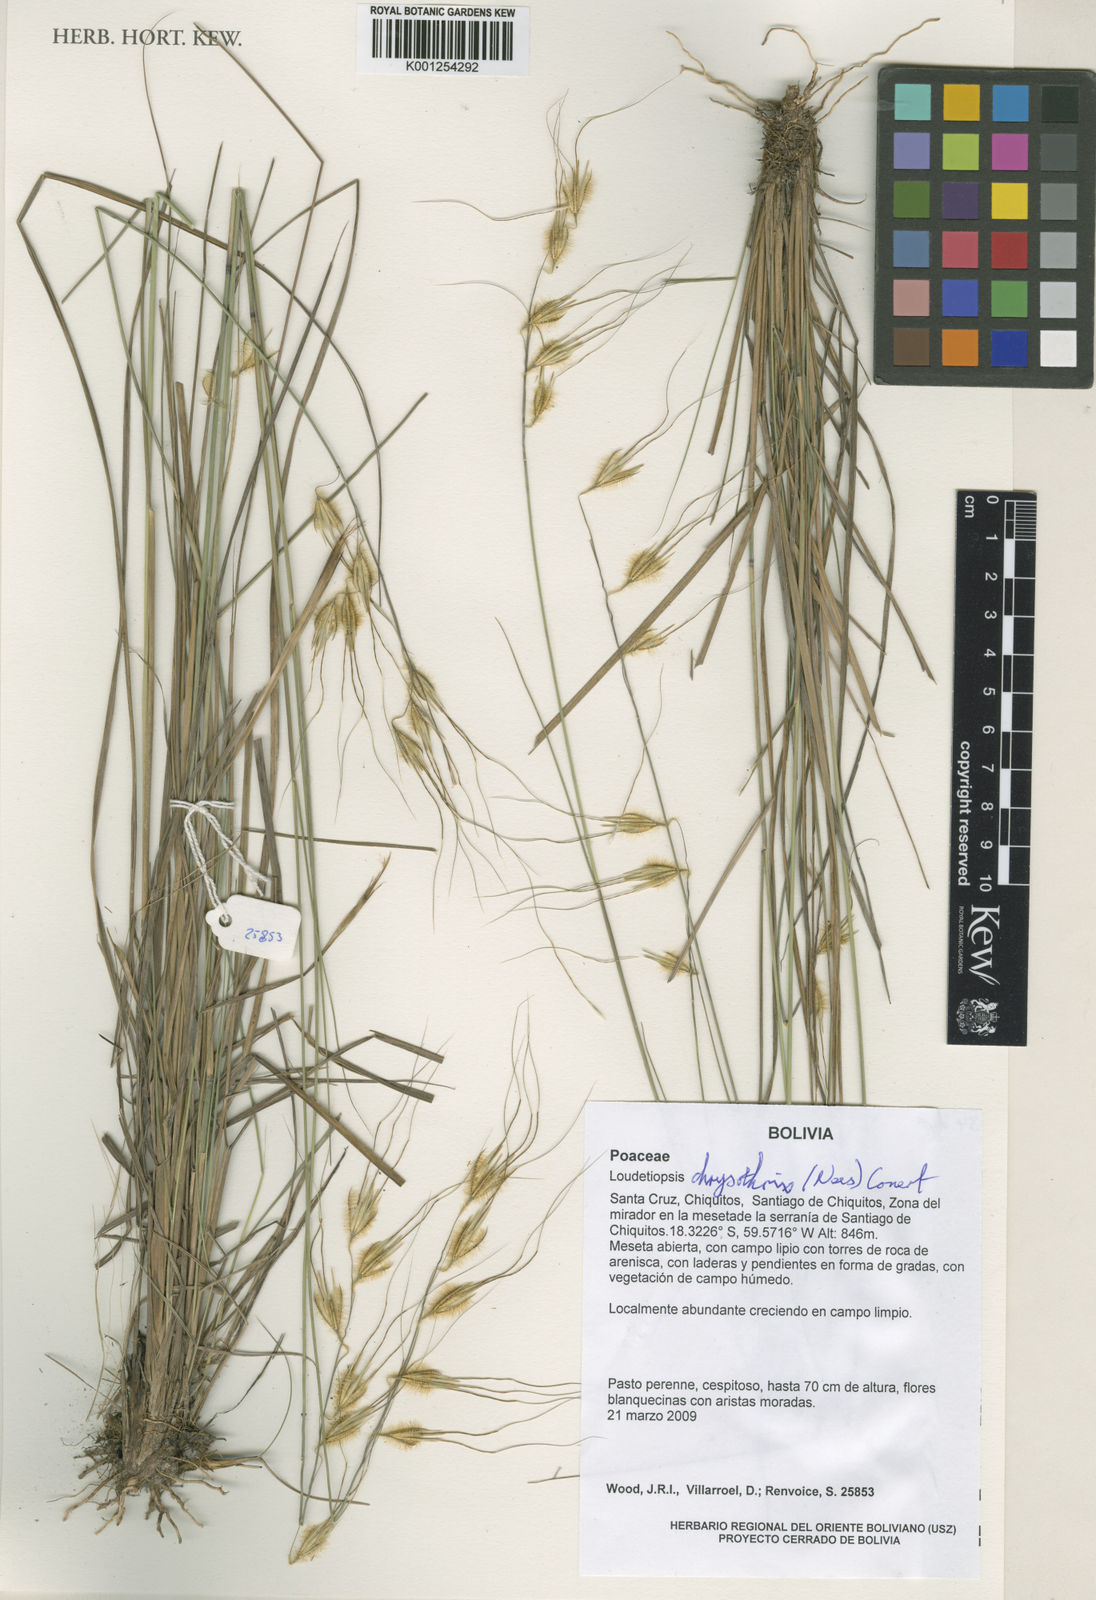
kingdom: Plantae
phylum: Tracheophyta
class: Liliopsida
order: Poales
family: Poaceae
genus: Loudetiopsis
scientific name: Loudetiopsis chrysothrix
